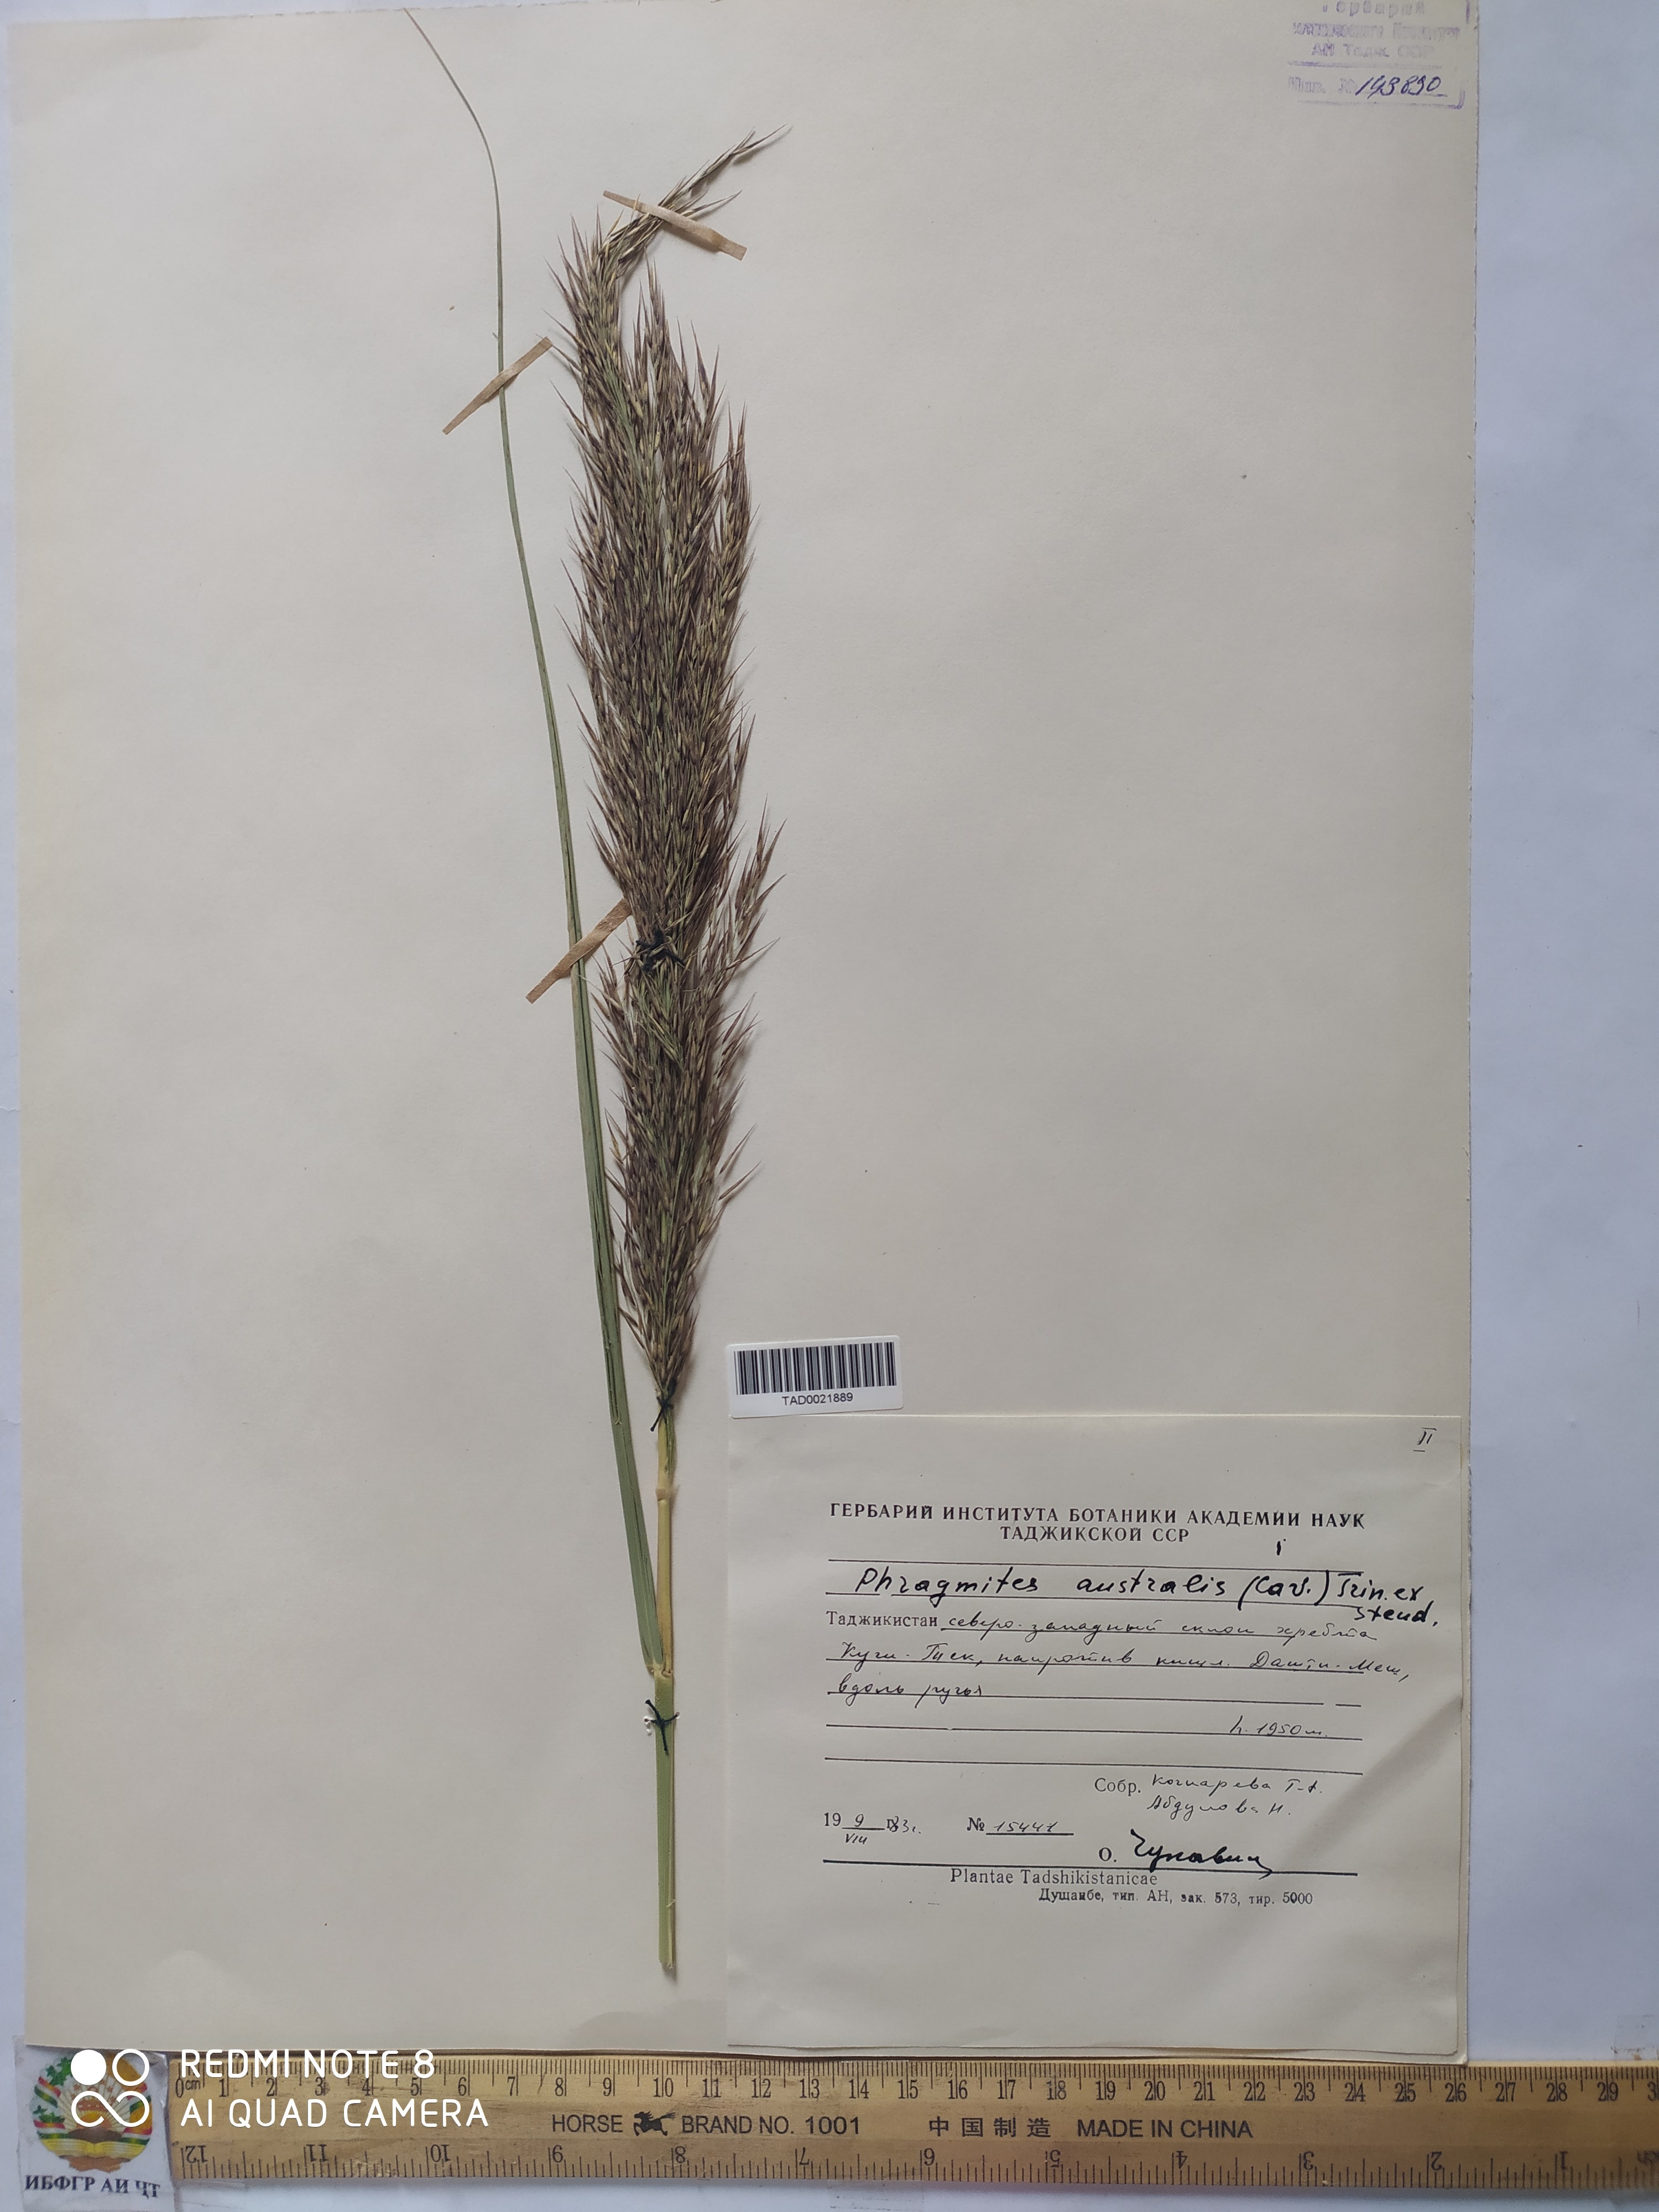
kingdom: Plantae
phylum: Tracheophyta
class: Liliopsida
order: Poales
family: Poaceae
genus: Phragmites
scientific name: Phragmites australis
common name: Common reed
